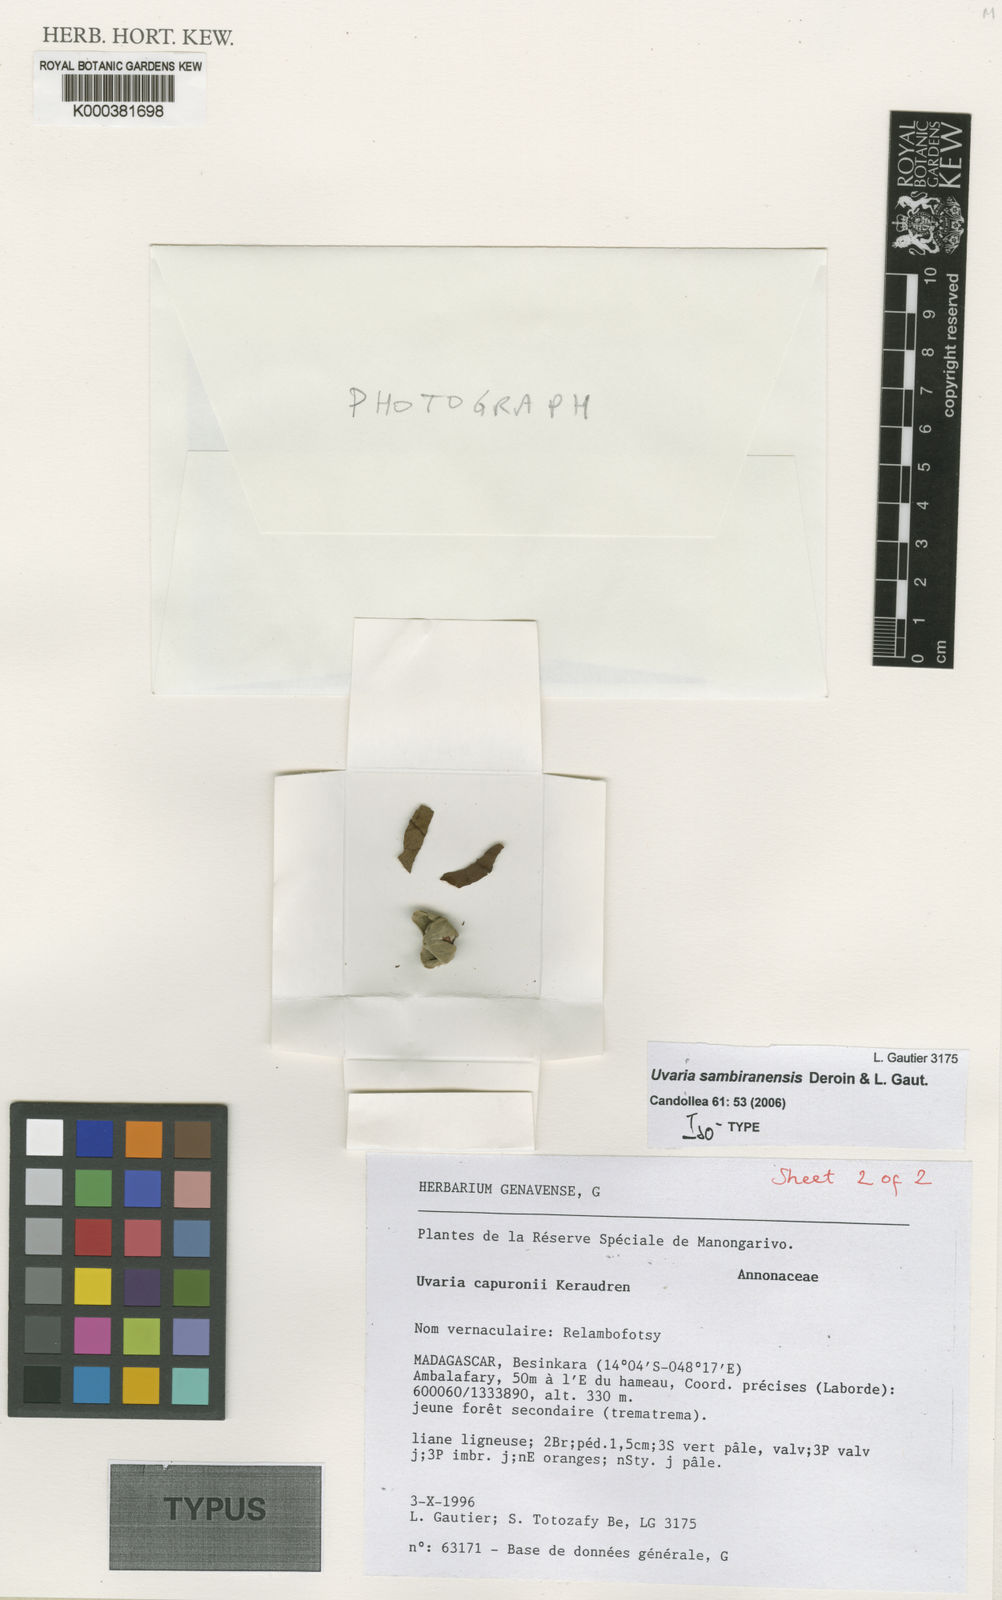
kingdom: Plantae
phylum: Tracheophyta
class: Magnoliopsida
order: Magnoliales
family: Annonaceae
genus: Uvaria
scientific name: Uvaria sambiranensis
